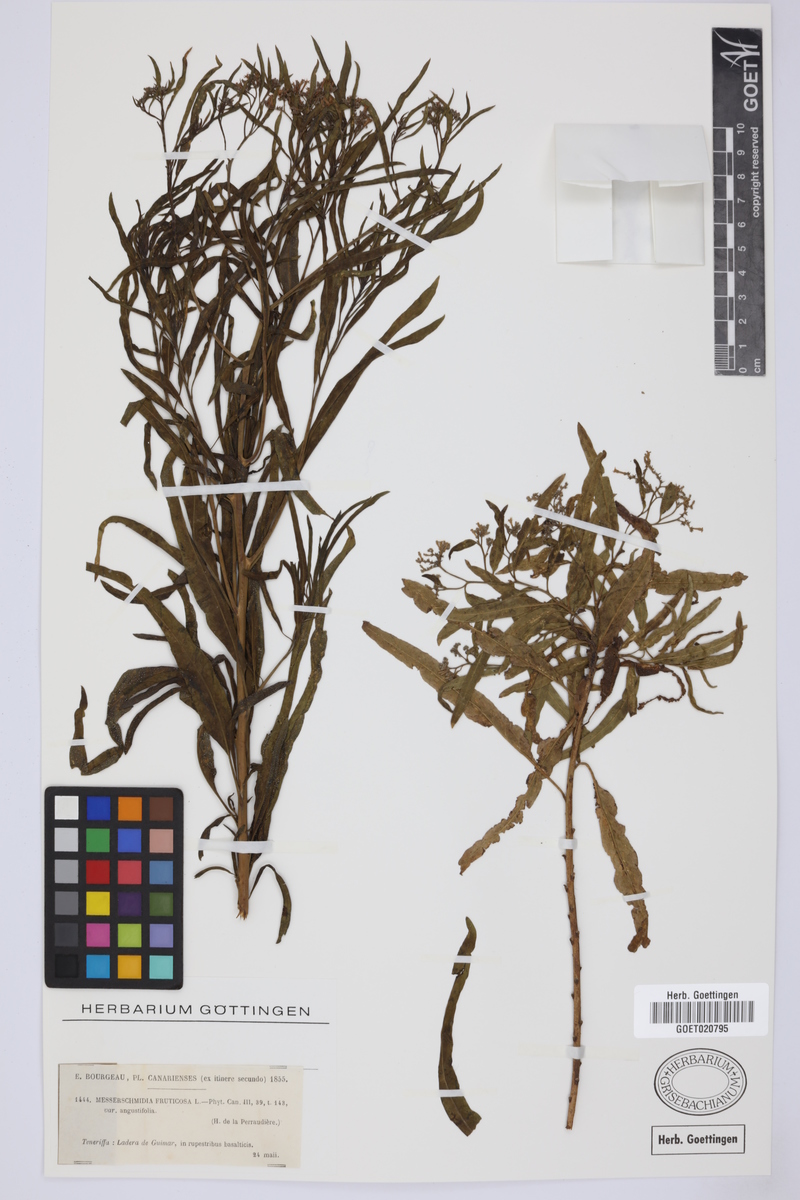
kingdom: Plantae
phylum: Tracheophyta
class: Magnoliopsida
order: Boraginales
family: Heliotropiaceae
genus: Heliotropium
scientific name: Heliotropium messerschmidioides
